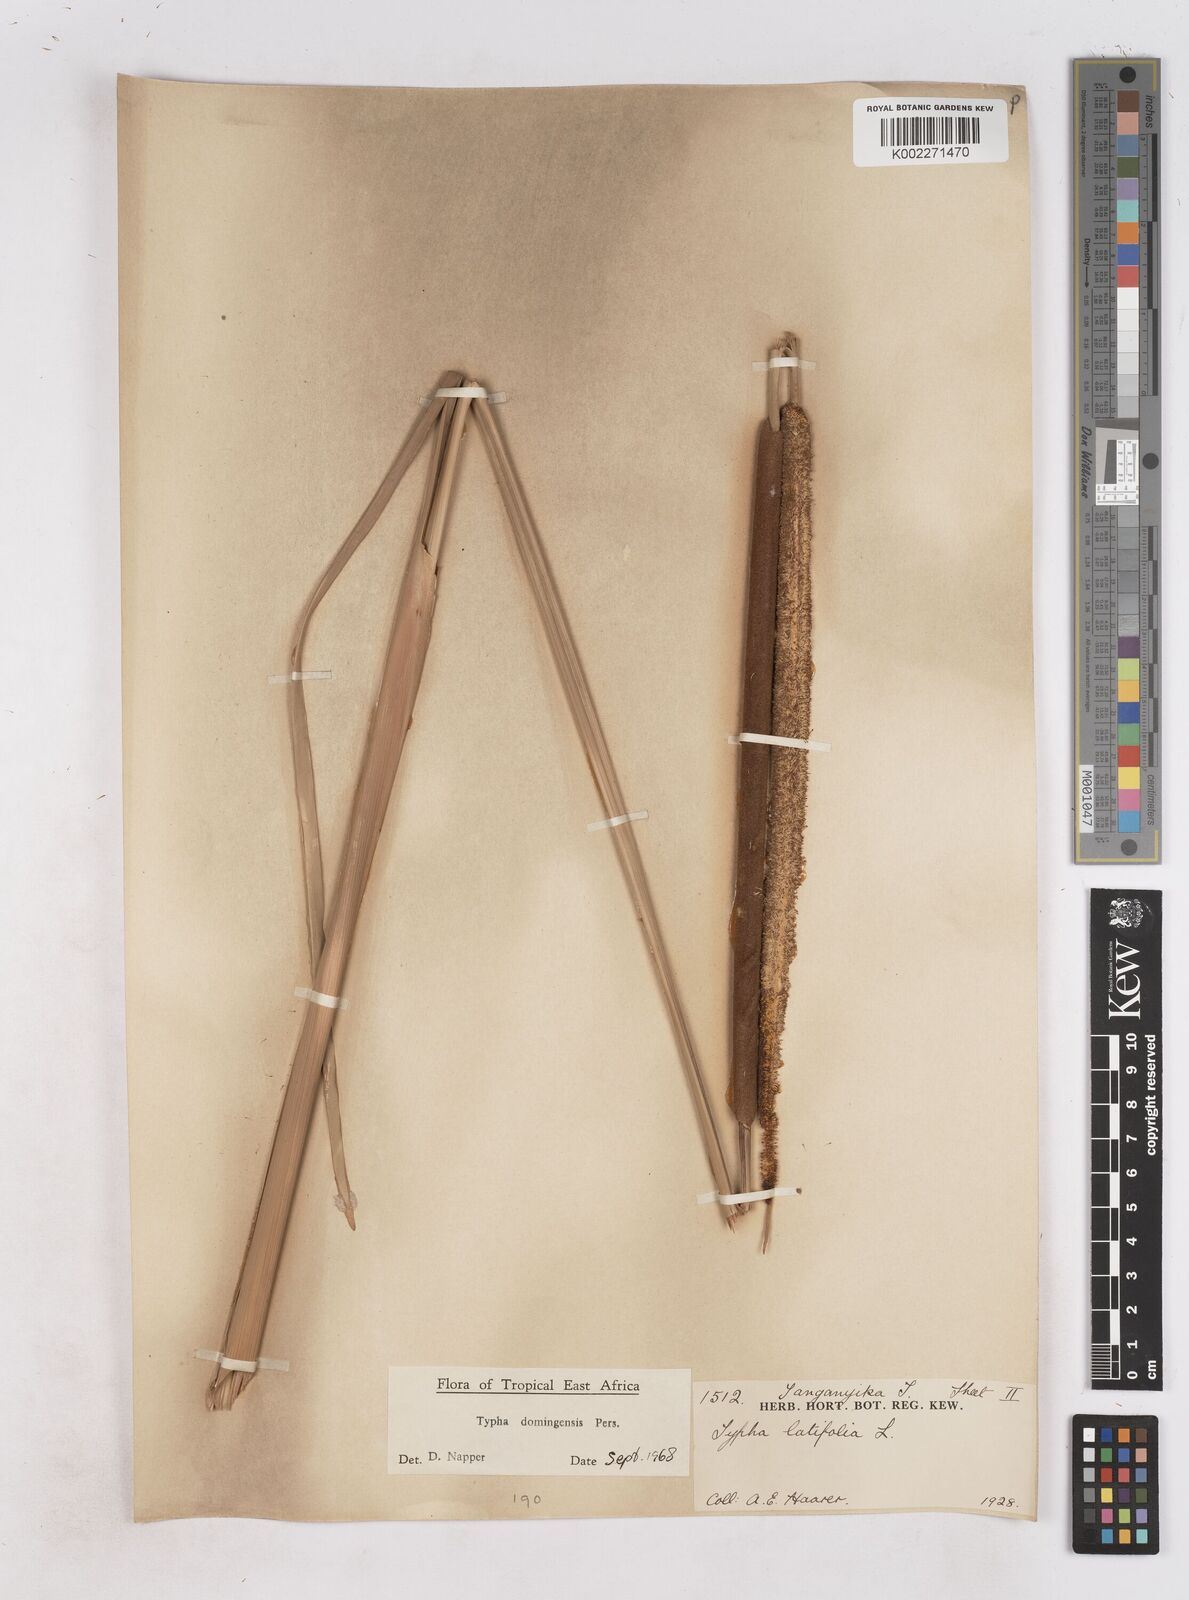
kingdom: Plantae
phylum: Tracheophyta
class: Liliopsida
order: Poales
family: Typhaceae
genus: Typha
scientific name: Typha domingensis
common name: Southern cattail
